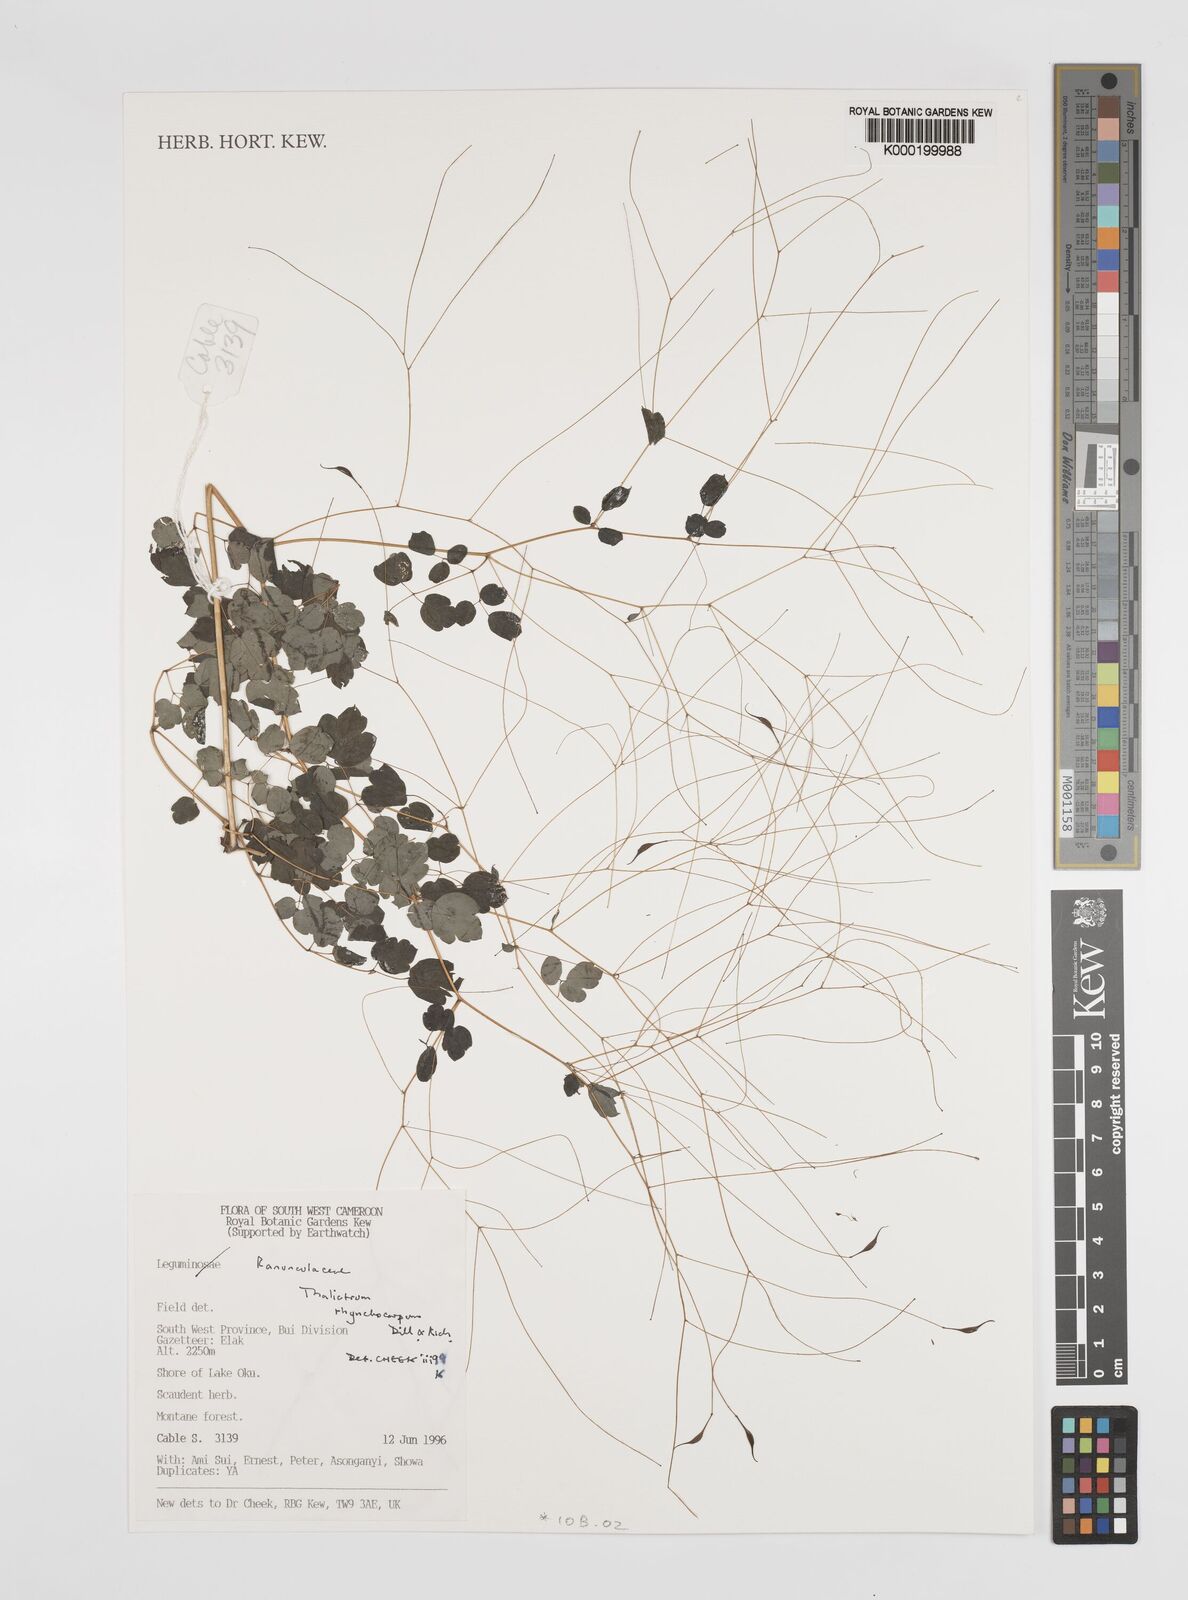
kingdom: Plantae
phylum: Tracheophyta
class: Magnoliopsida
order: Ranunculales
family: Ranunculaceae
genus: Thalictrum
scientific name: Thalictrum rhynchocarpum
